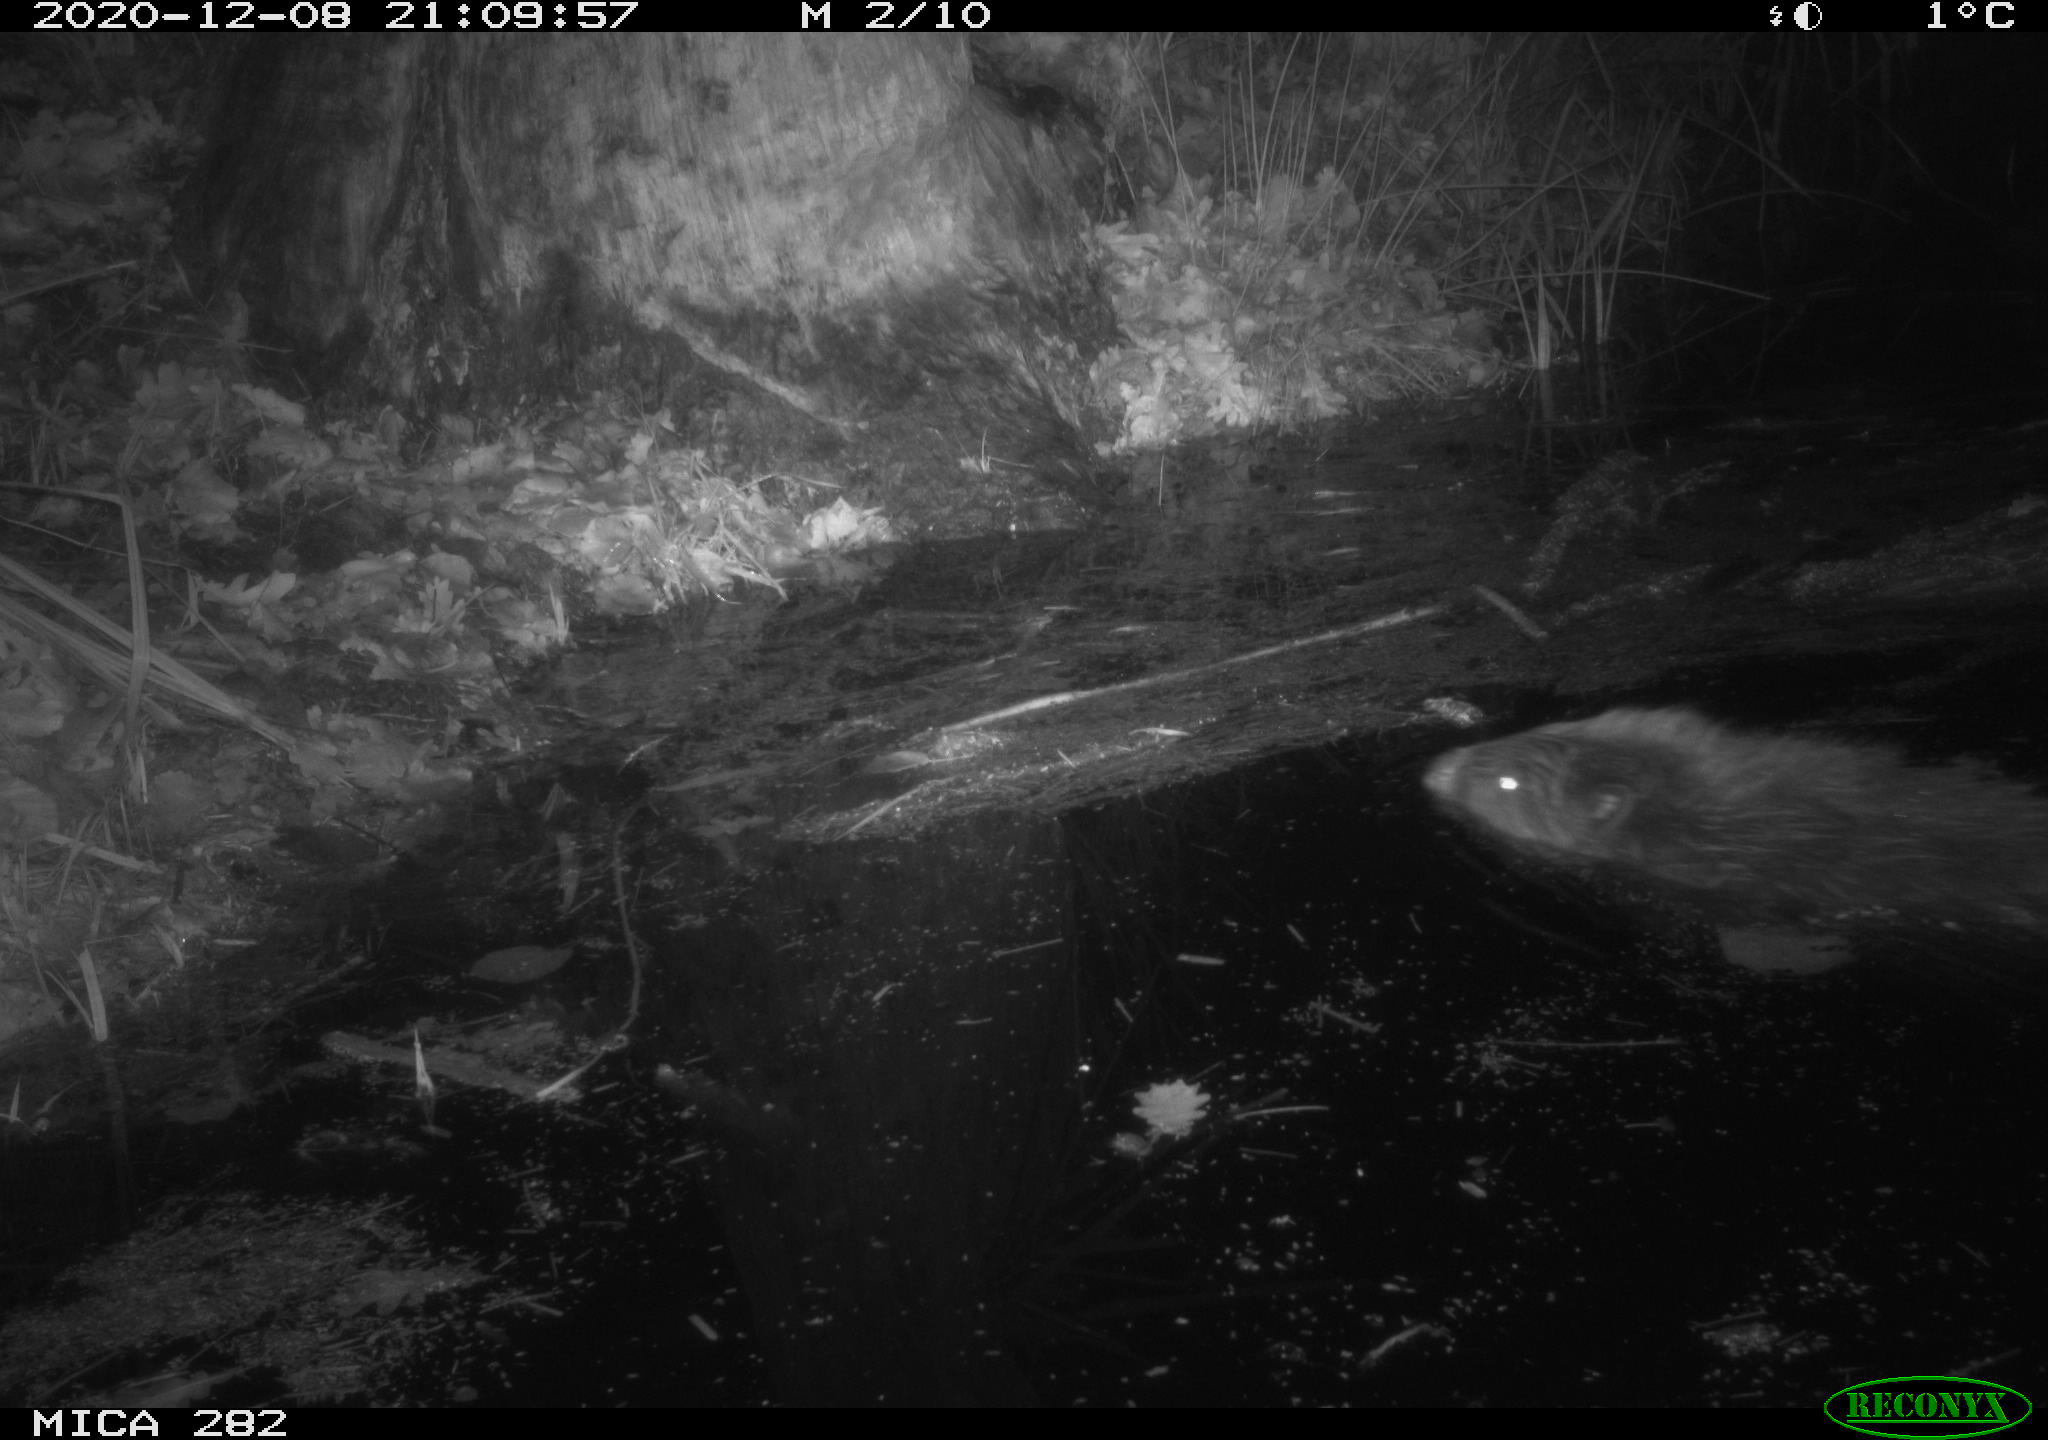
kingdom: Animalia
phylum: Chordata
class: Mammalia
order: Rodentia
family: Castoridae
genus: Castor
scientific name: Castor fiber
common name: Eurasian beaver
